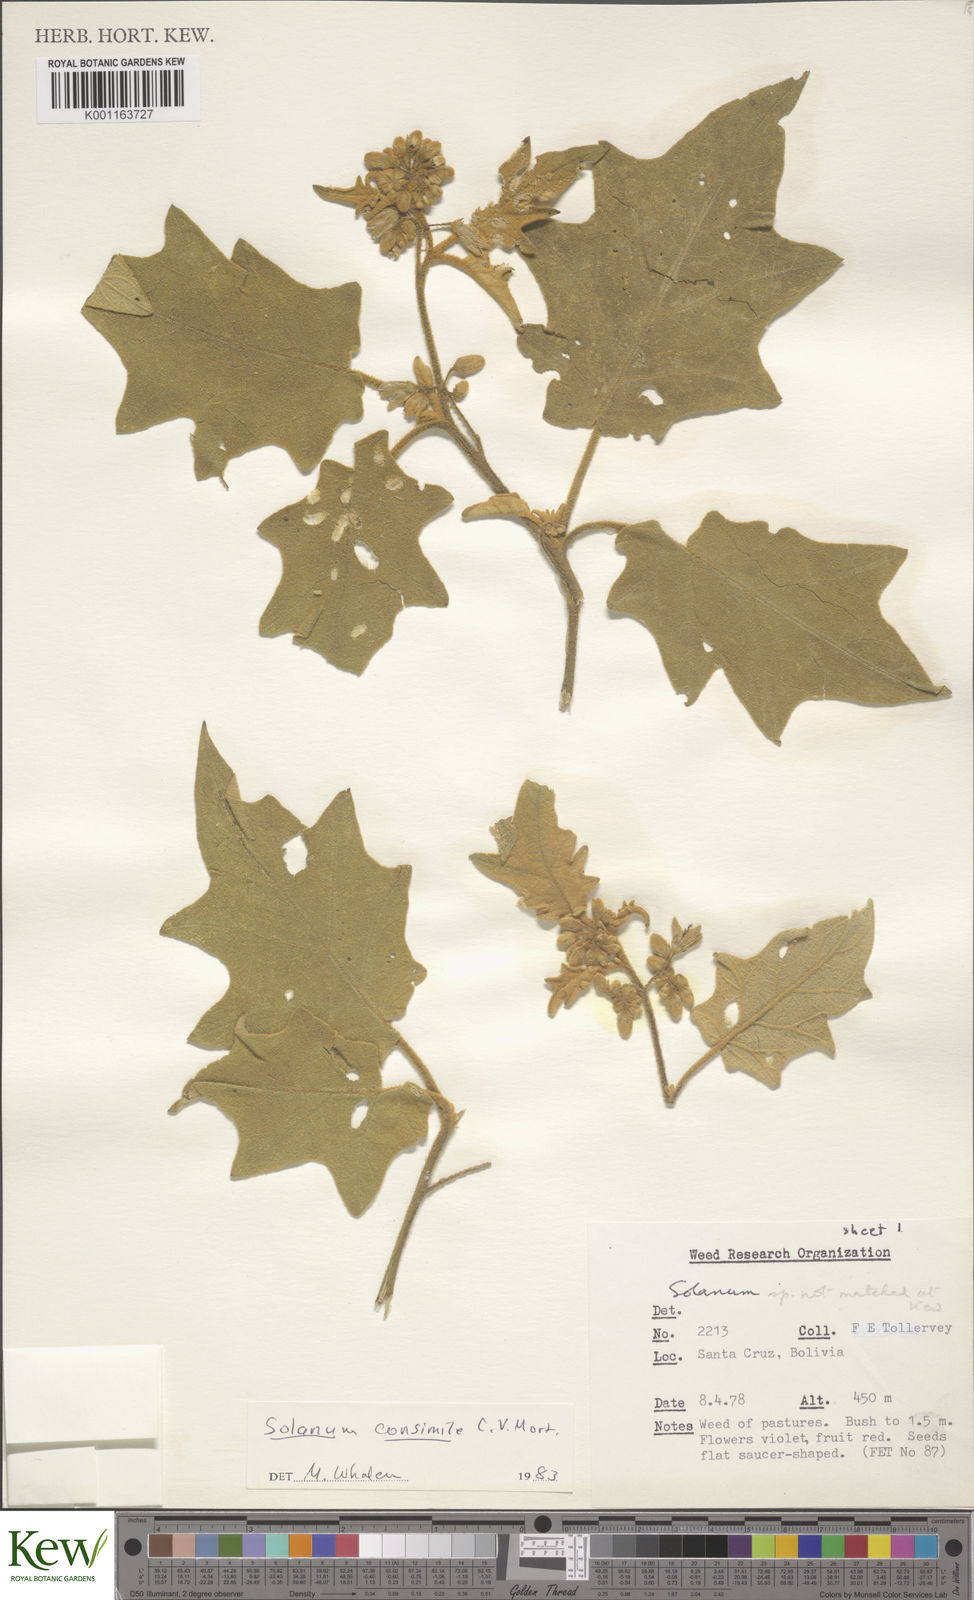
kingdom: Plantae
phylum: Tracheophyta
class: Magnoliopsida
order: Solanales
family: Solanaceae
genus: Solanum
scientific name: Solanum consimile
